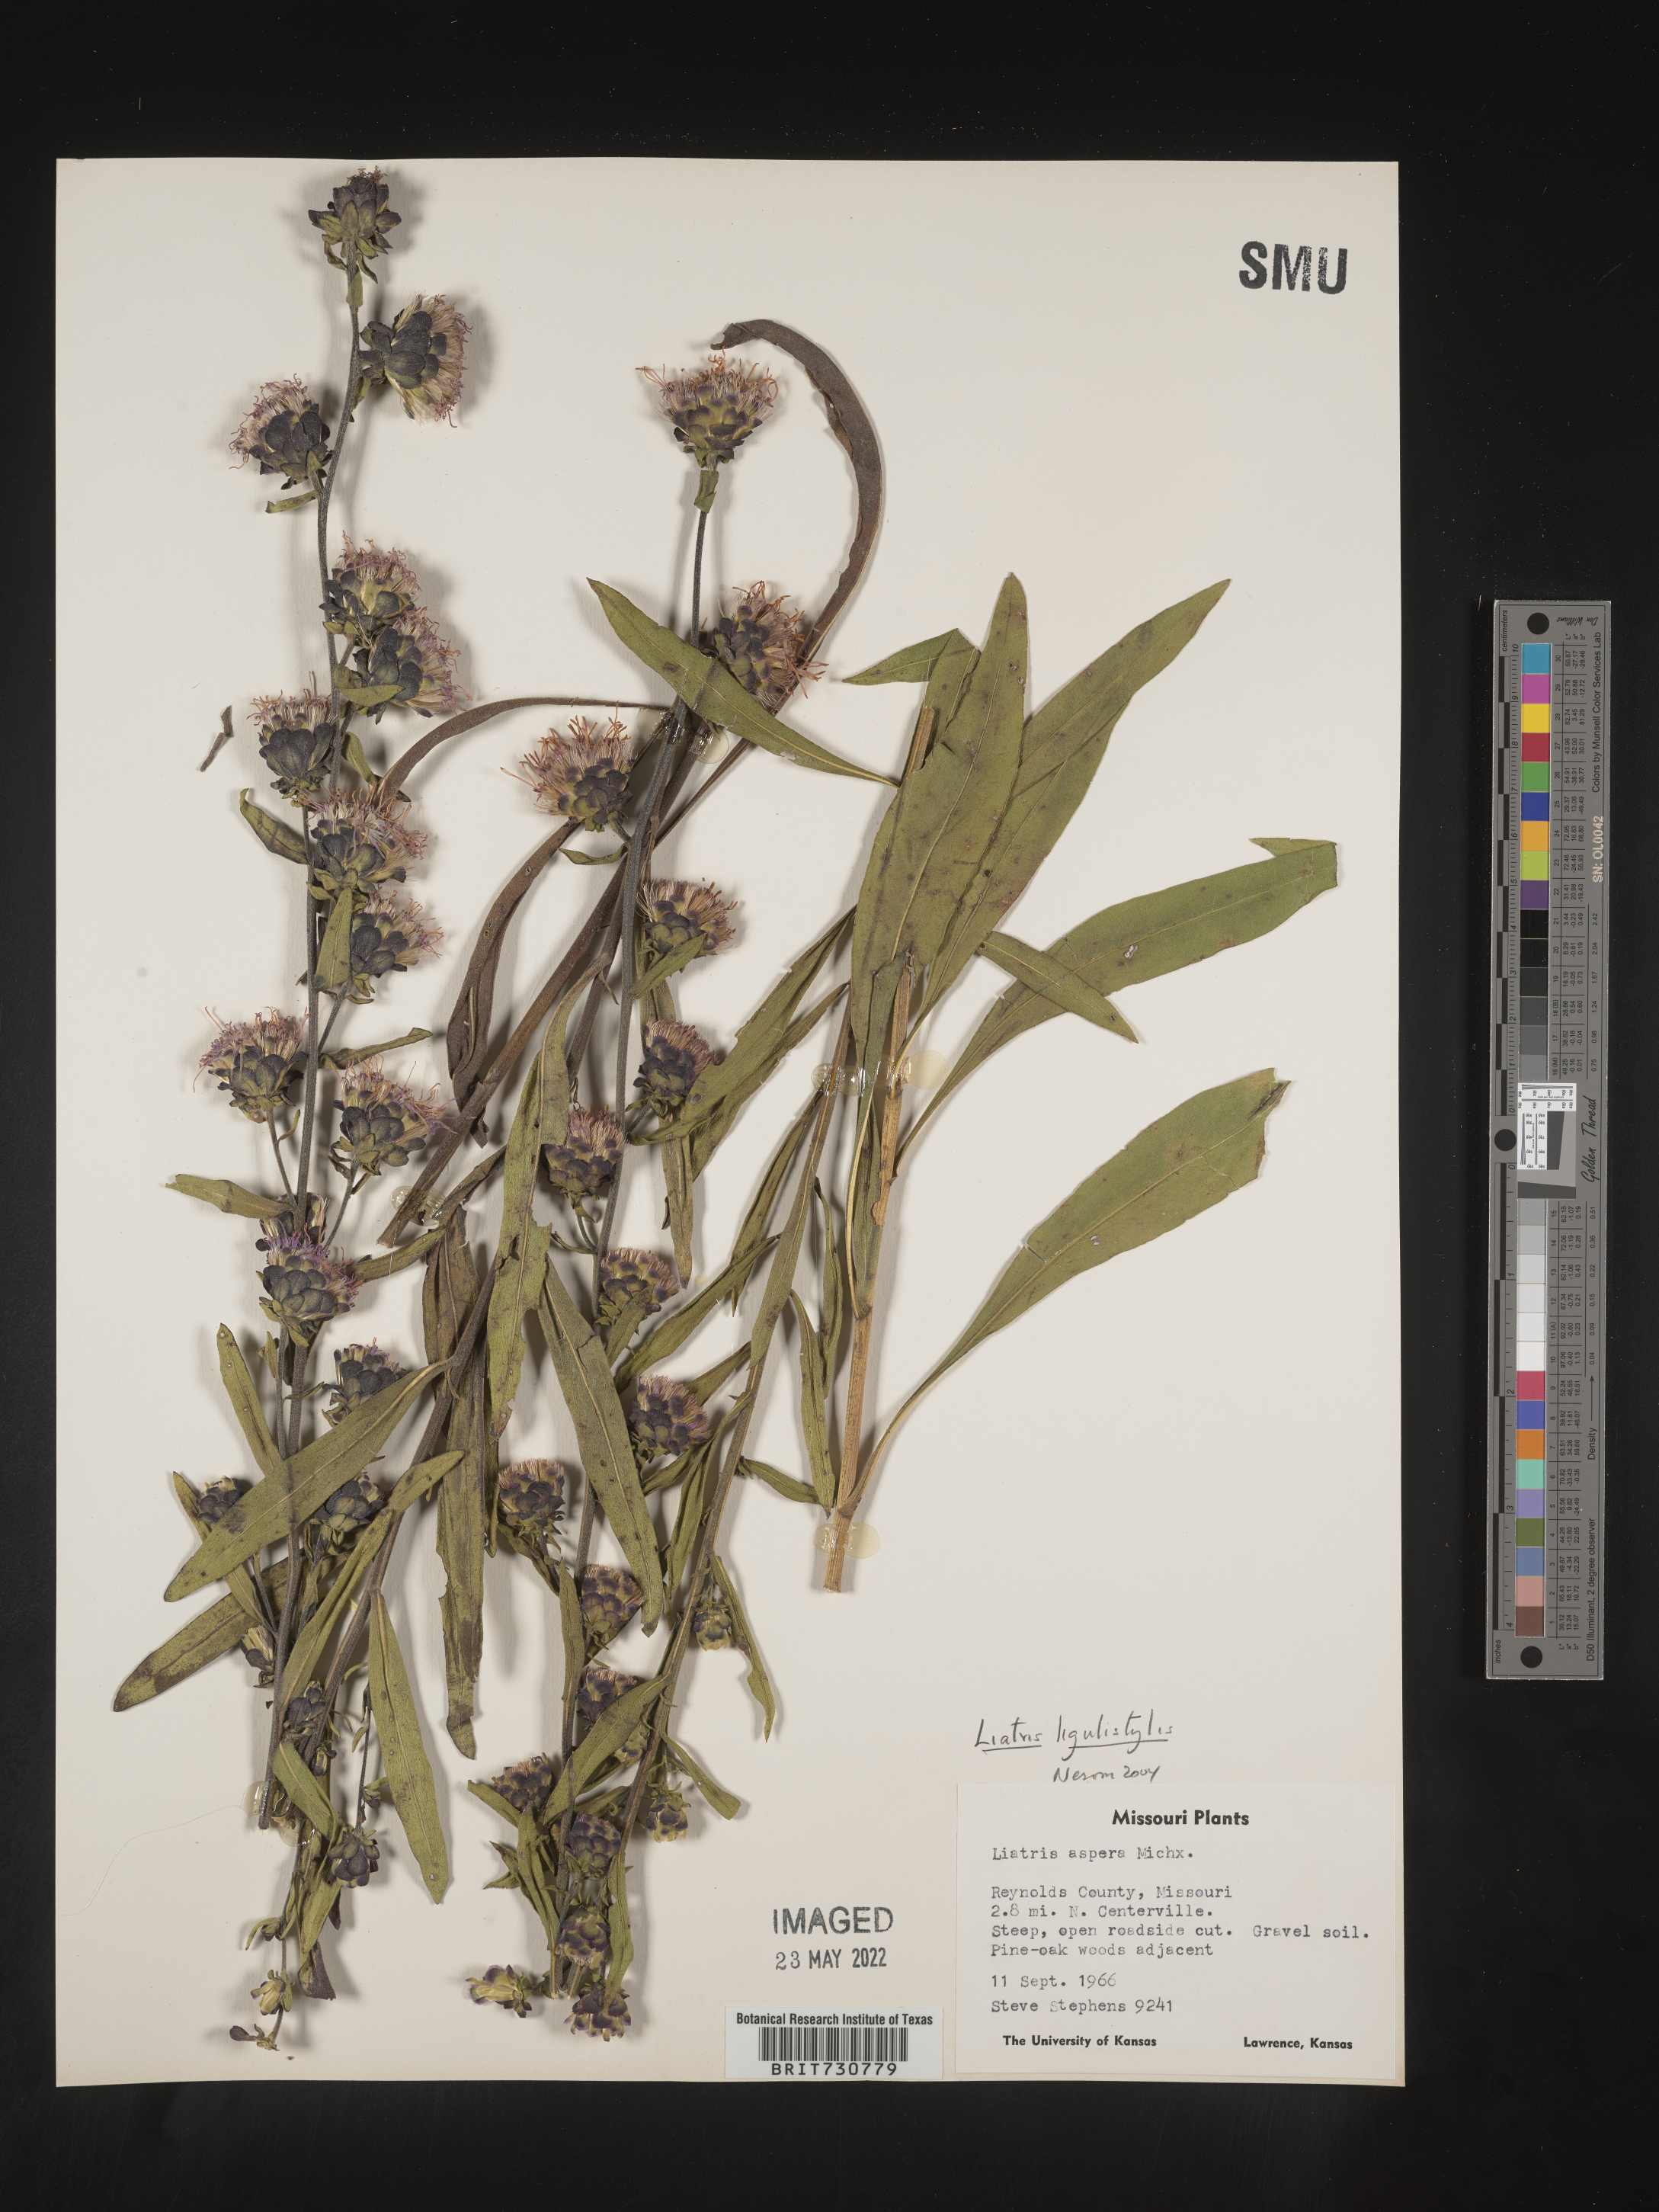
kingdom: Plantae
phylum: Tracheophyta
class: Magnoliopsida
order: Asterales
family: Asteraceae
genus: Liatris
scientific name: Liatris ligulistylis
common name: Northern plains gayfeather
